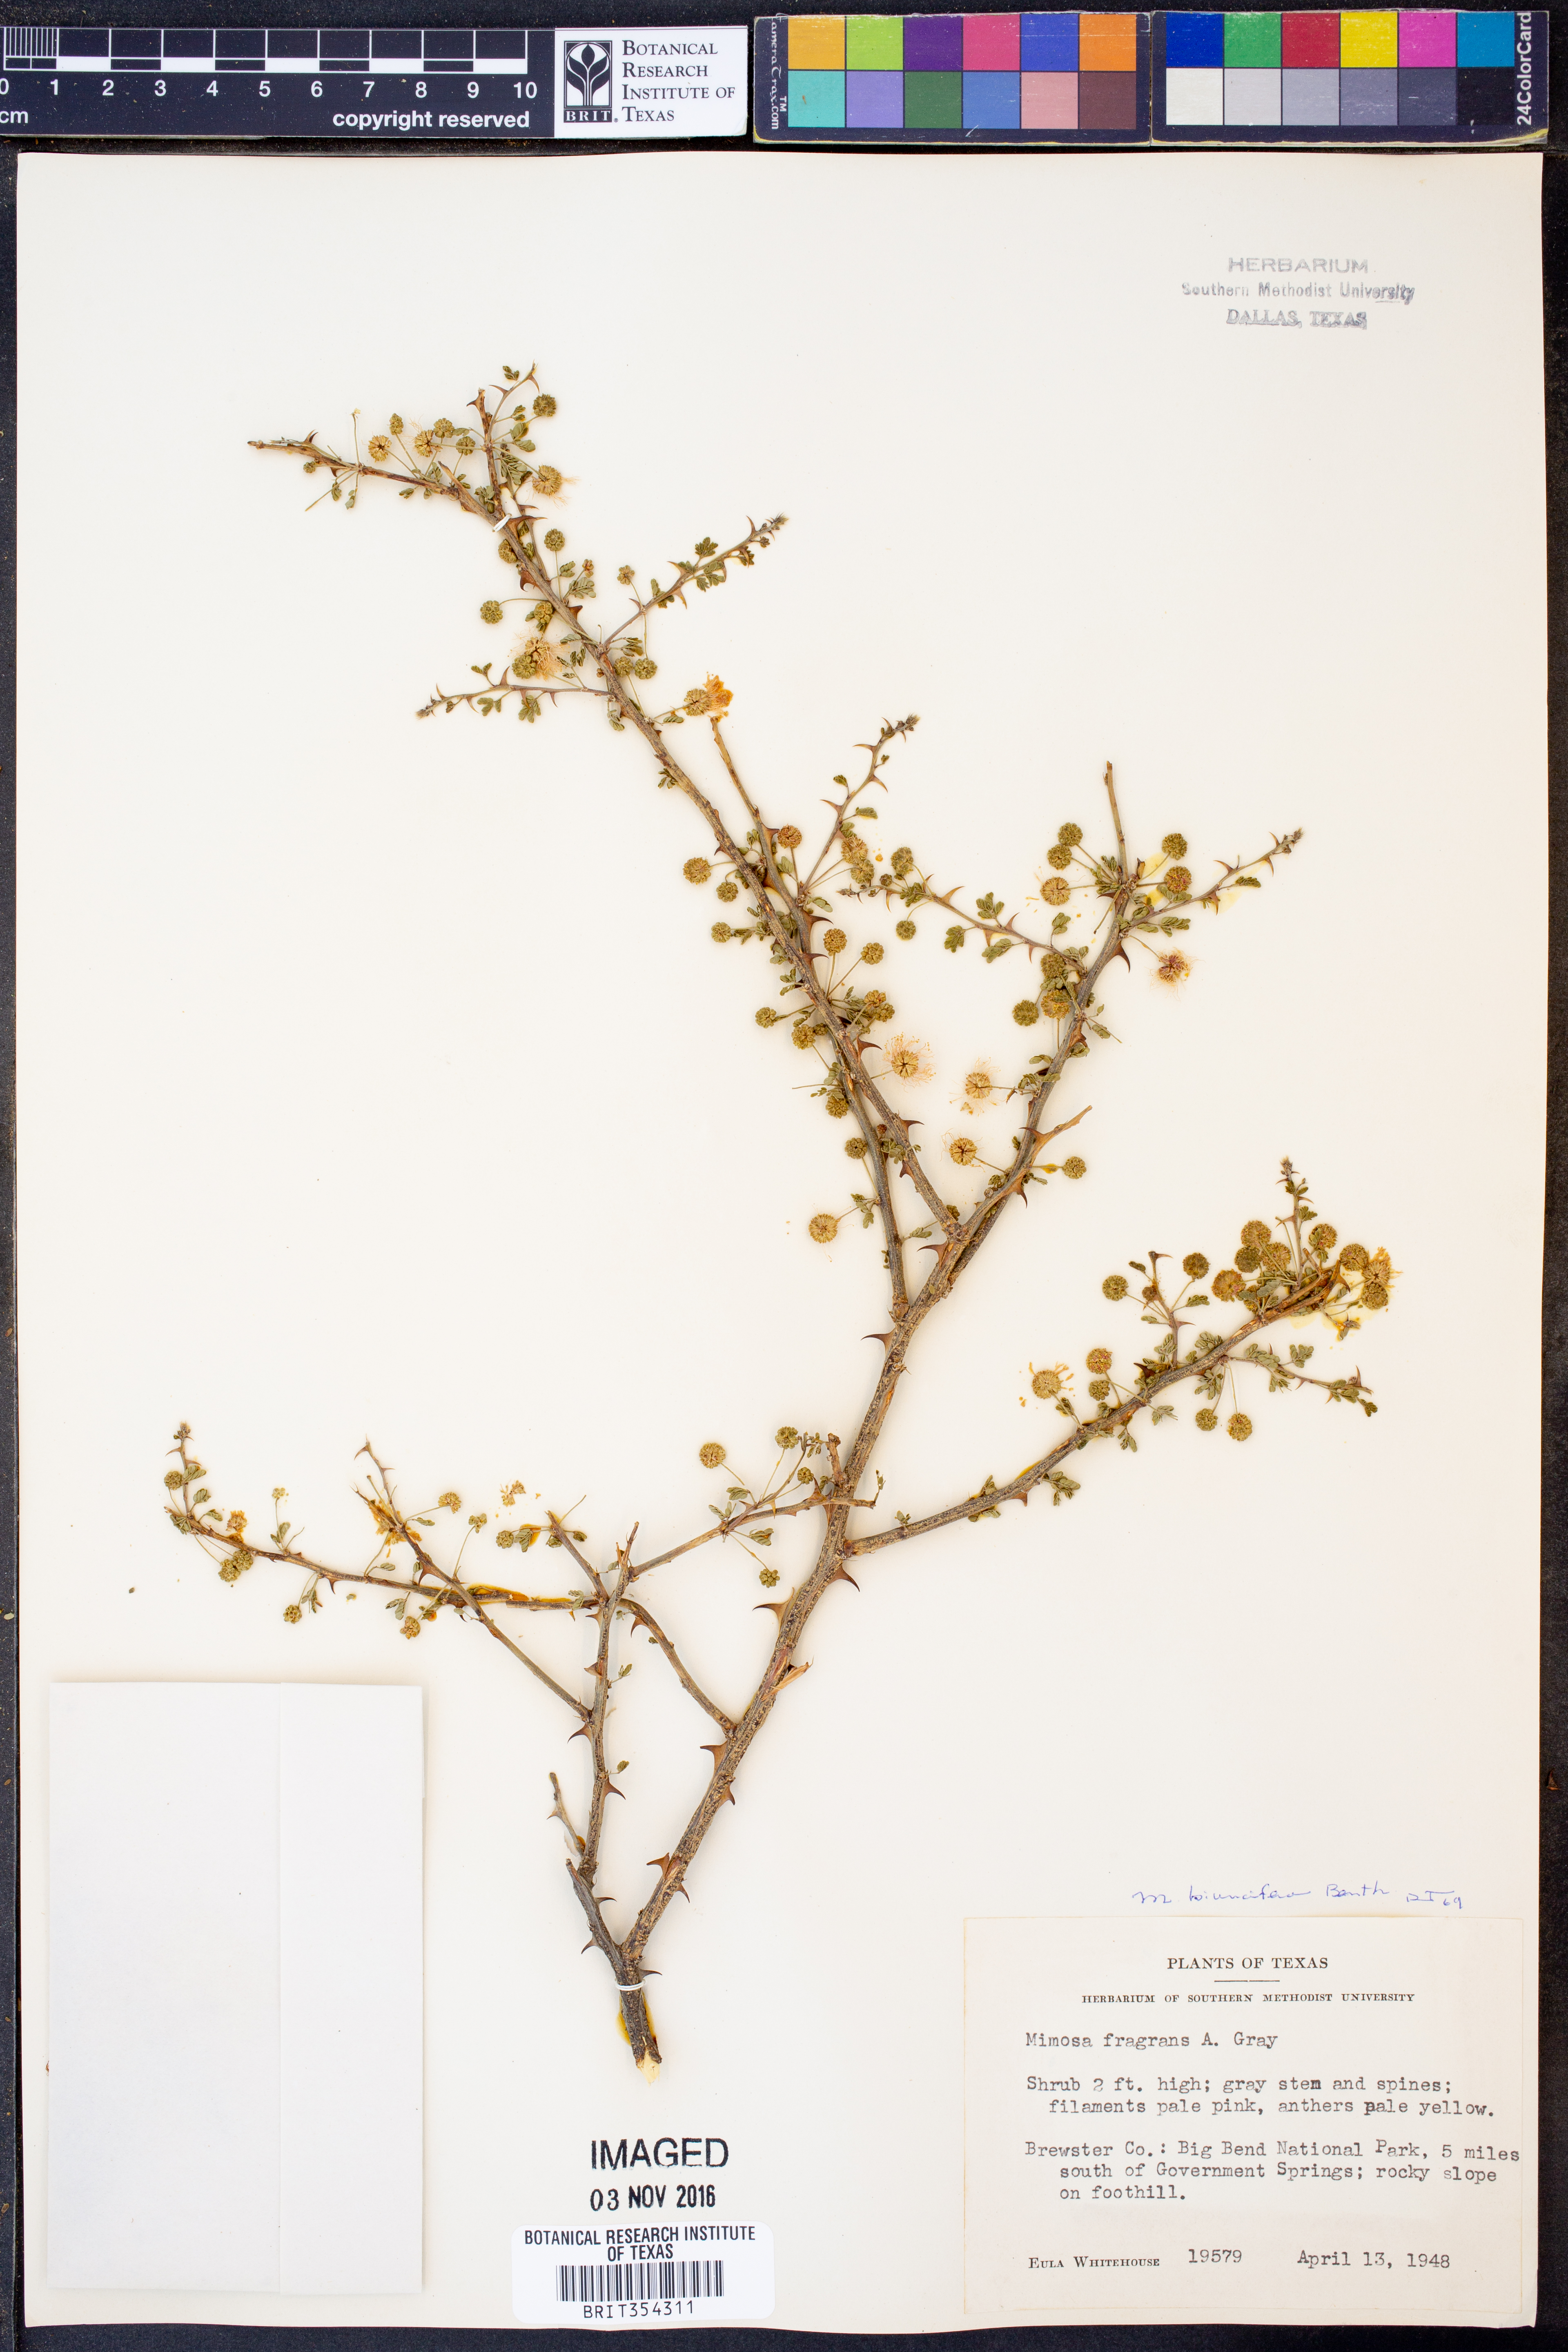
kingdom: Plantae
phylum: Tracheophyta
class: Magnoliopsida
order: Fabales
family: Fabaceae
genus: Mimosa
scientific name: Mimosa biuncifera
